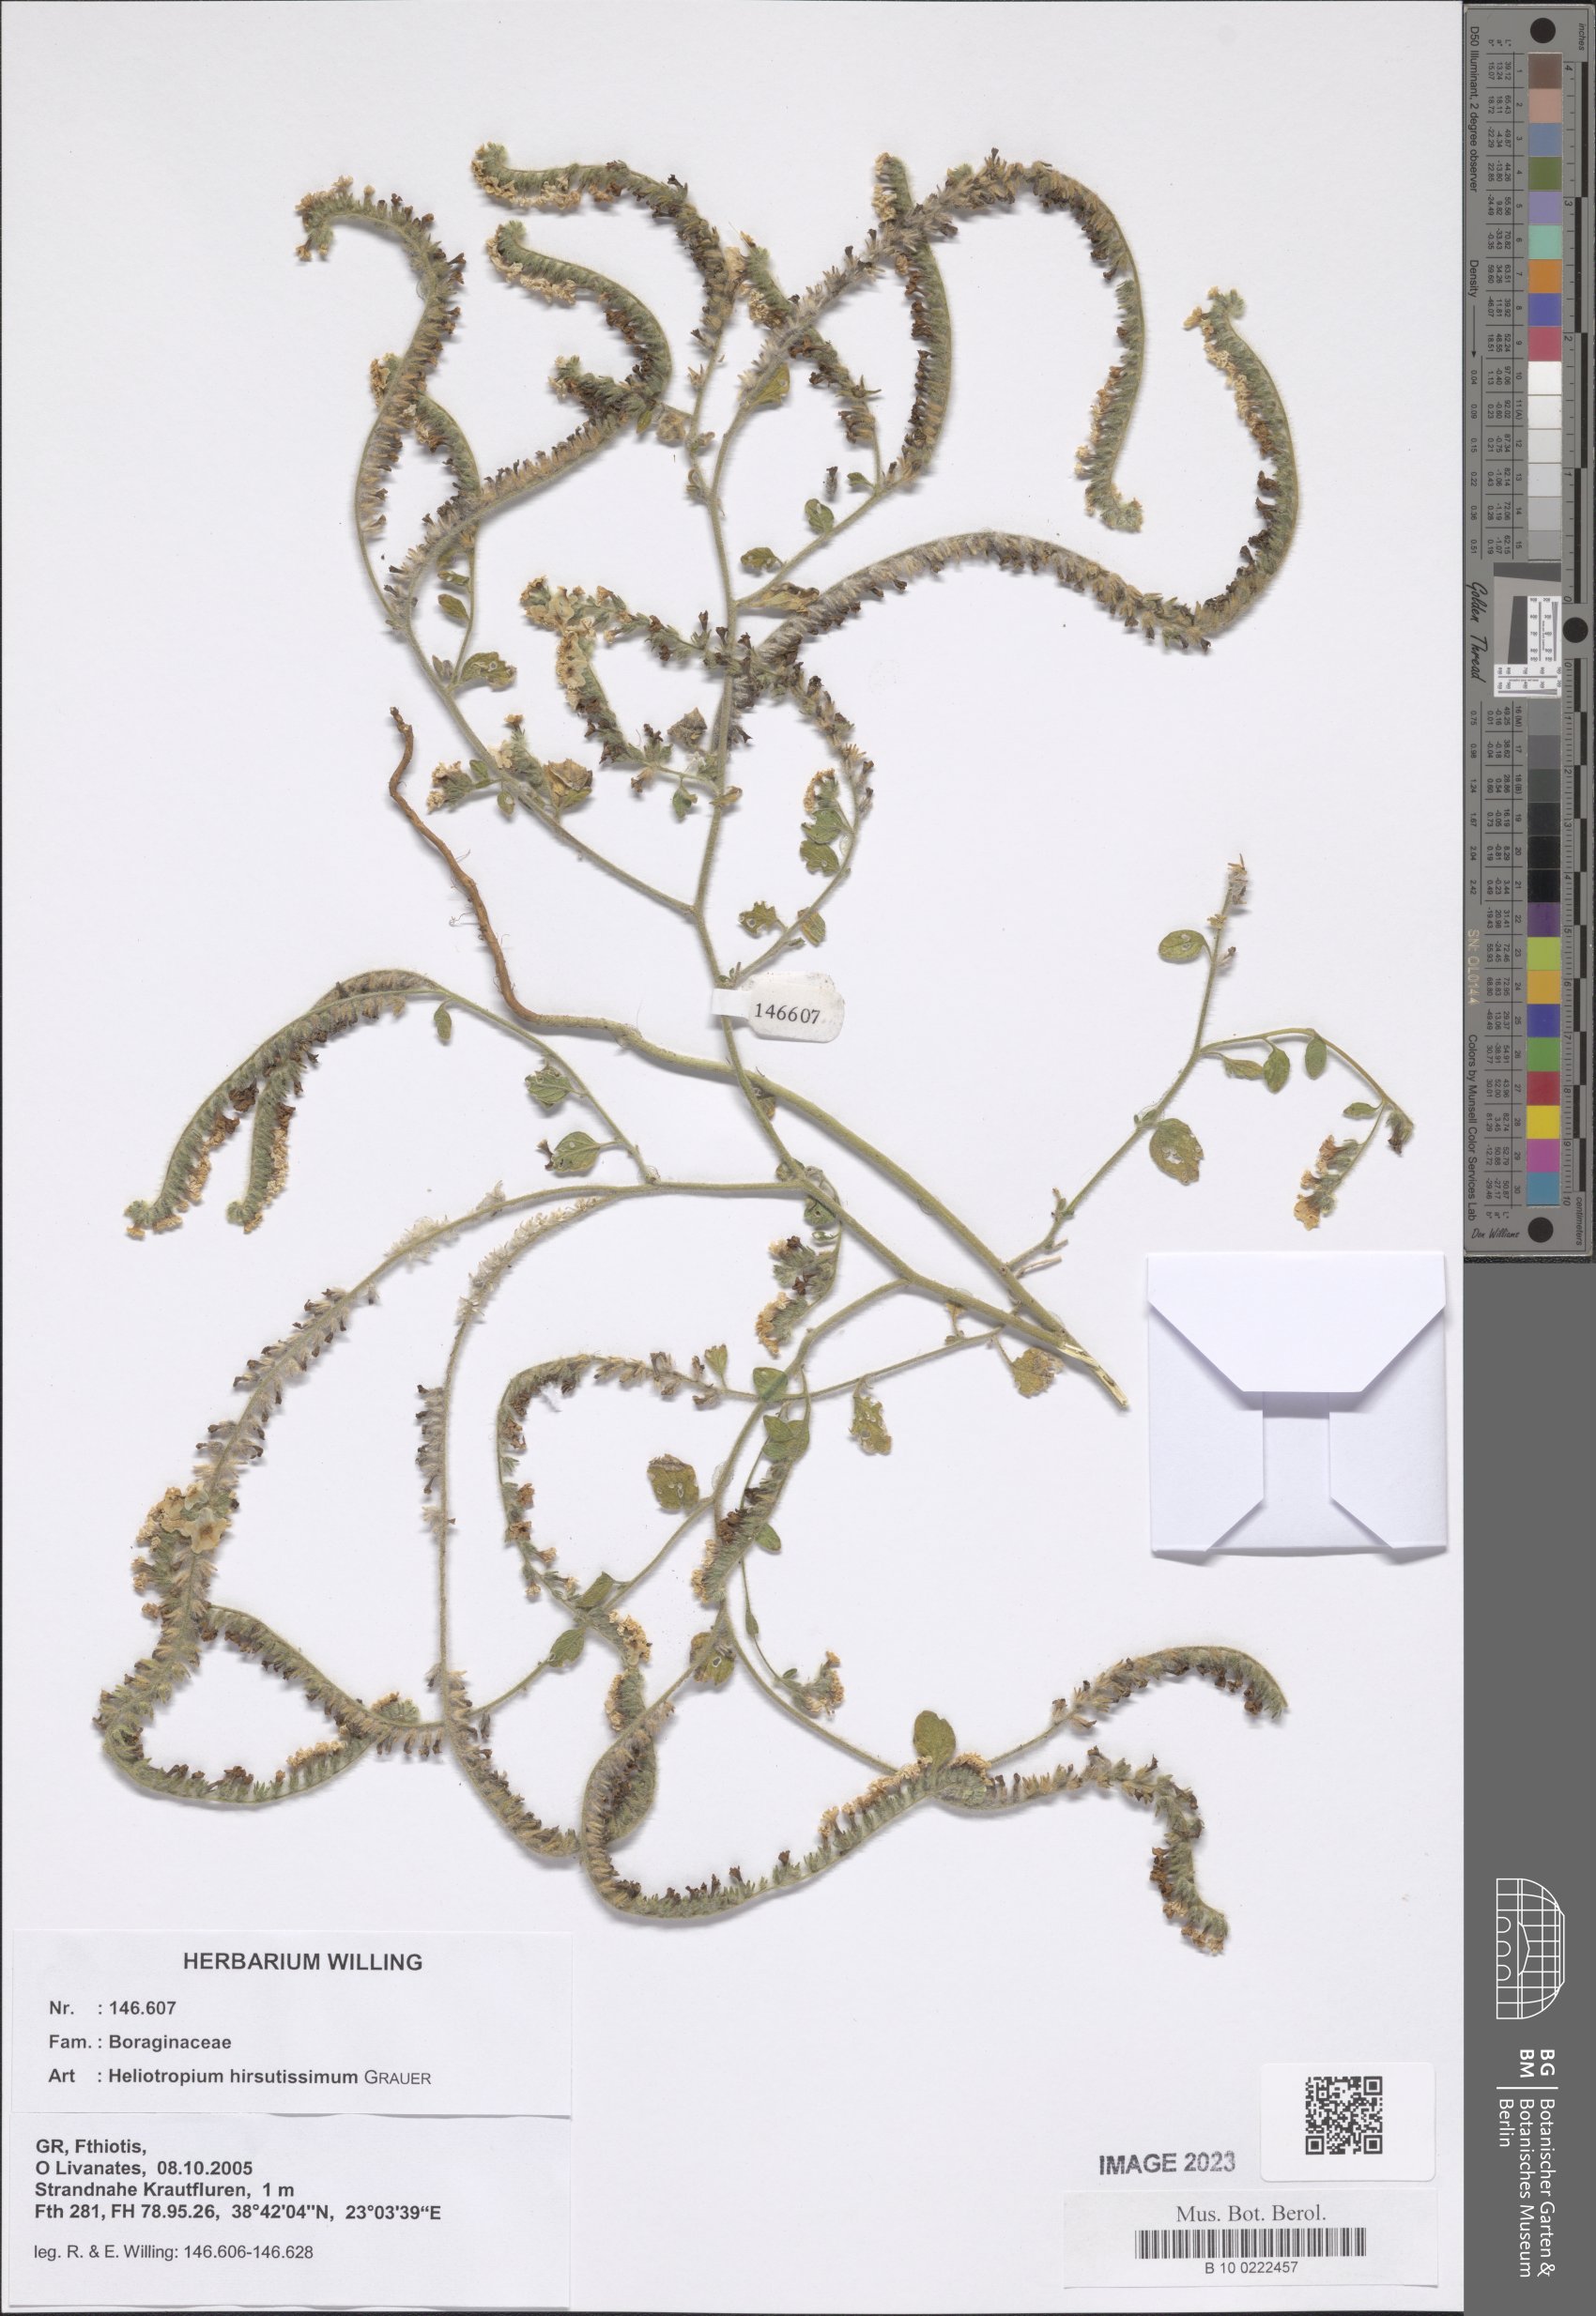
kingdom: Plantae
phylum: Tracheophyta
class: Magnoliopsida
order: Boraginales
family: Heliotropiaceae
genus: Heliotropium
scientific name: Heliotropium hirsutissimum
